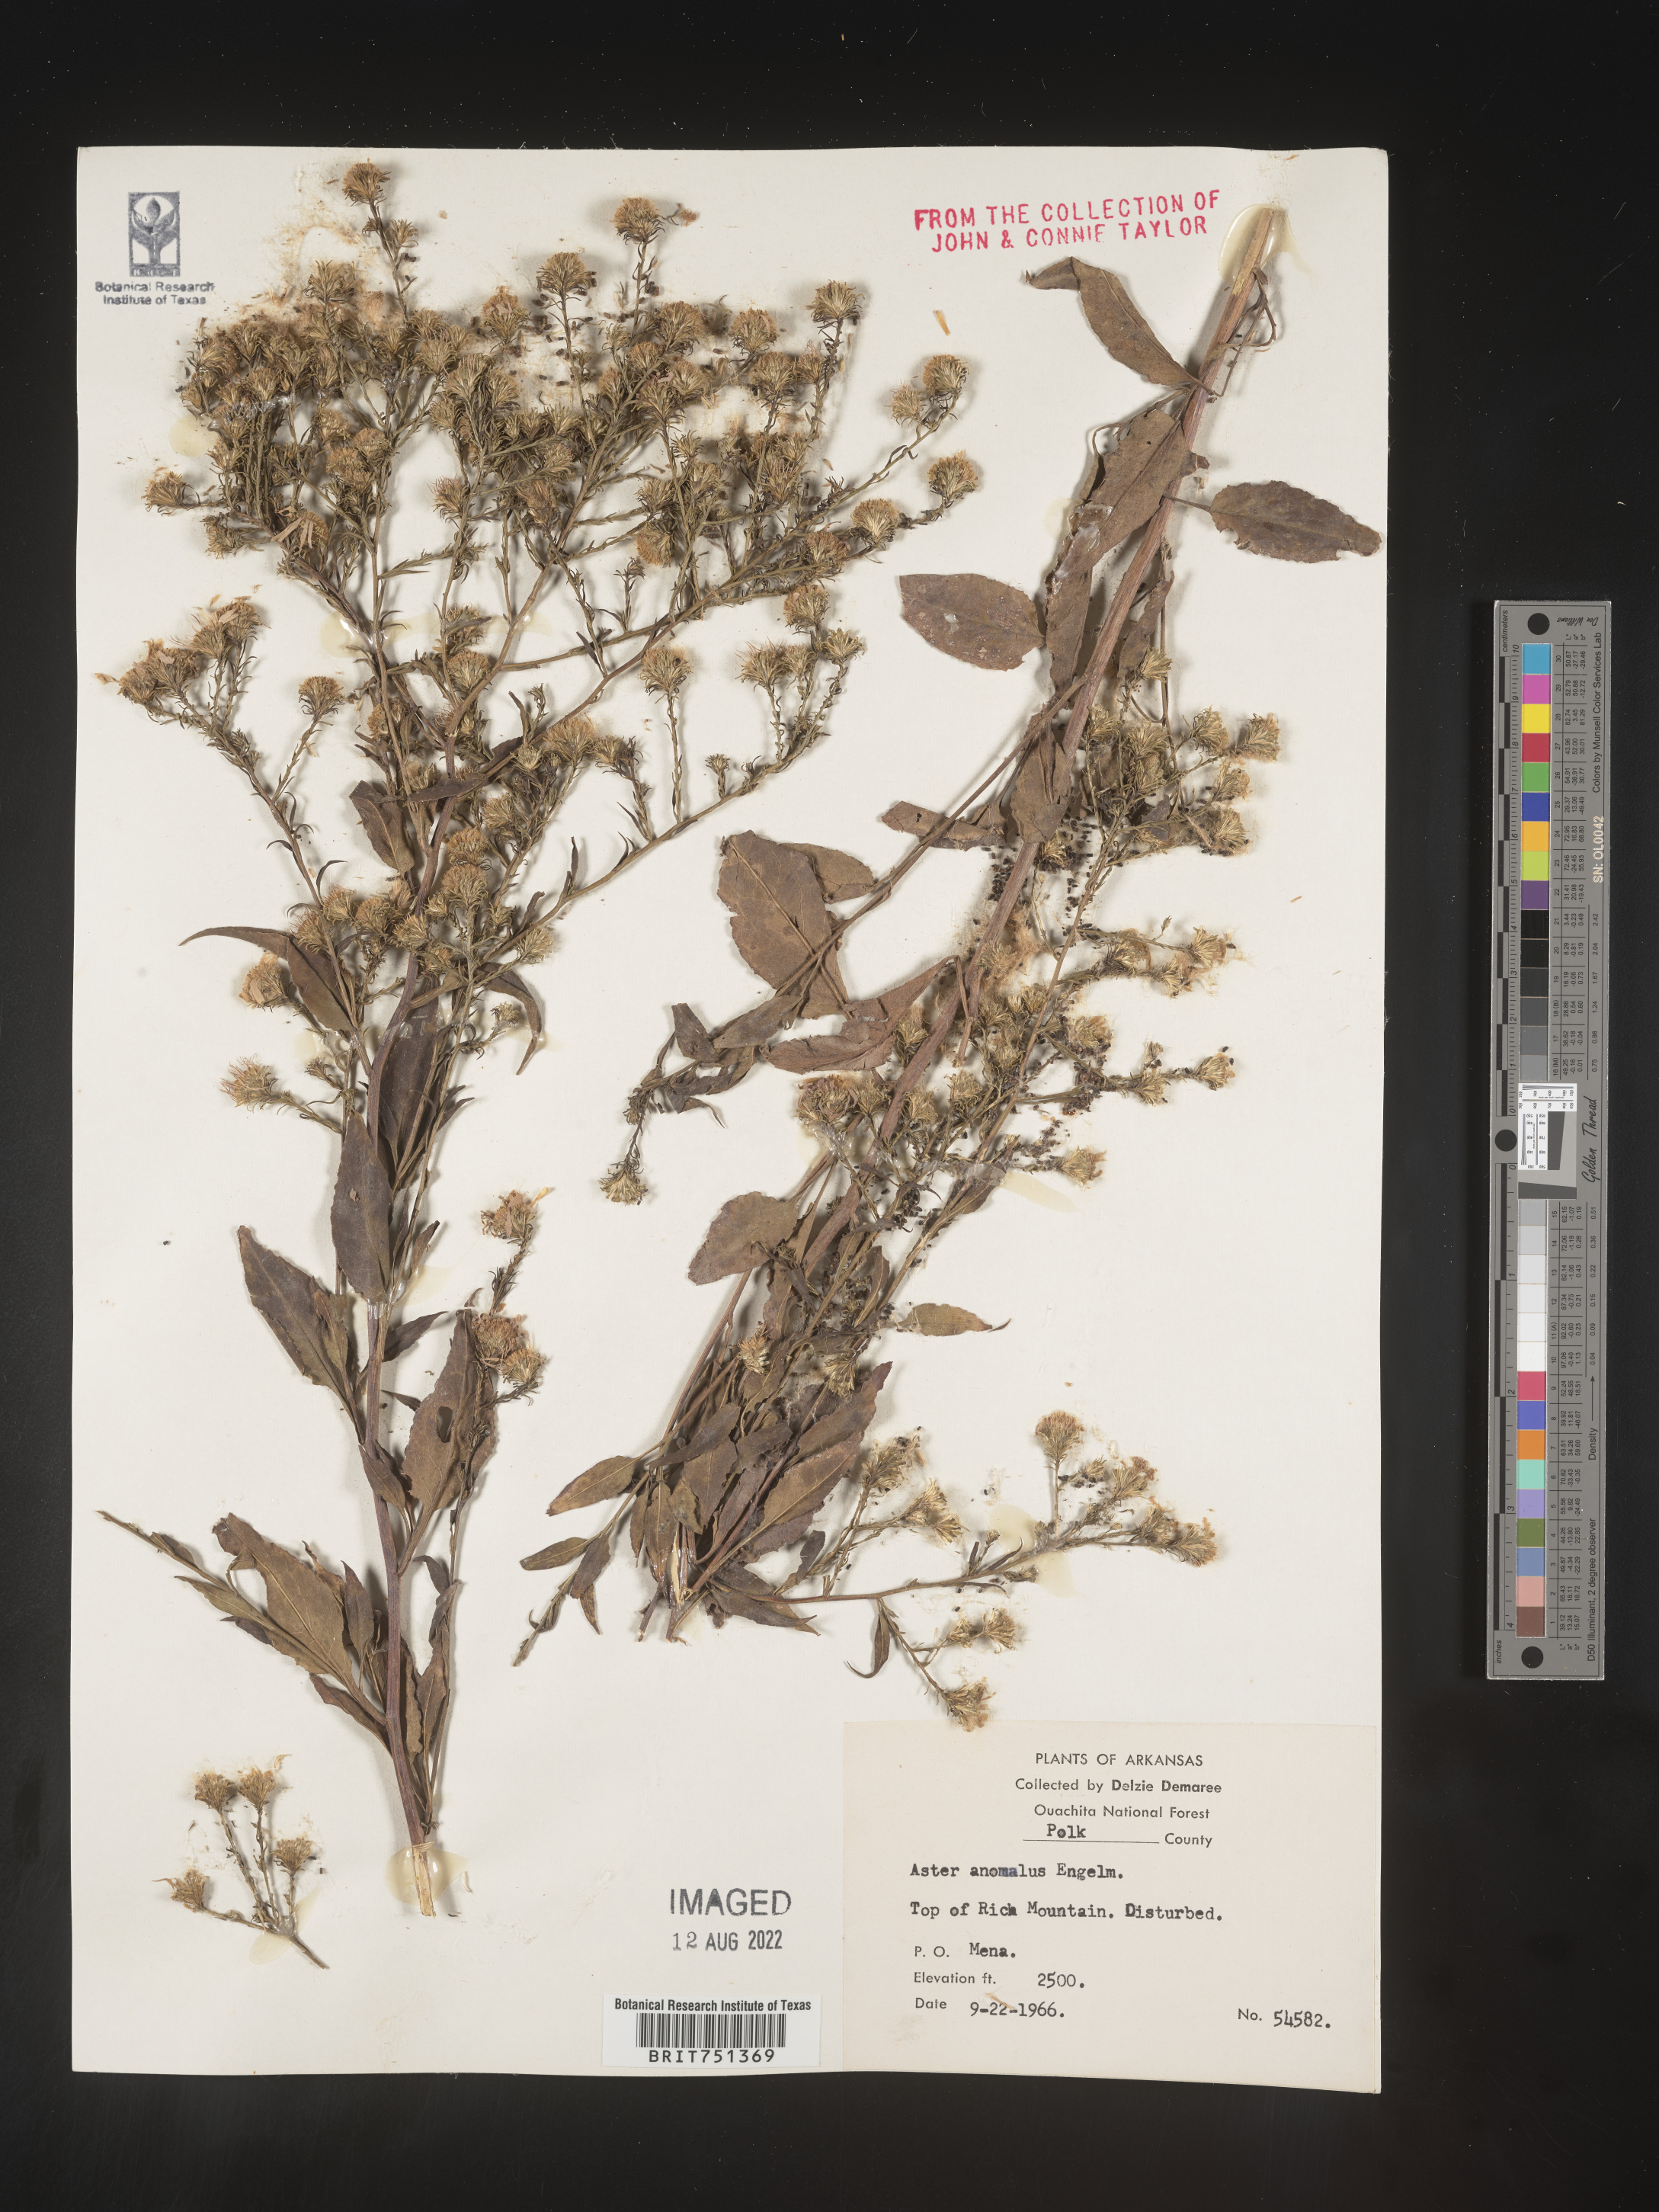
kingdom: Plantae
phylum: Tracheophyta
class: Magnoliopsida
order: Asterales
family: Asteraceae
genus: Symphyotrichum
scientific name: Symphyotrichum anomalum
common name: Many-ray aster
